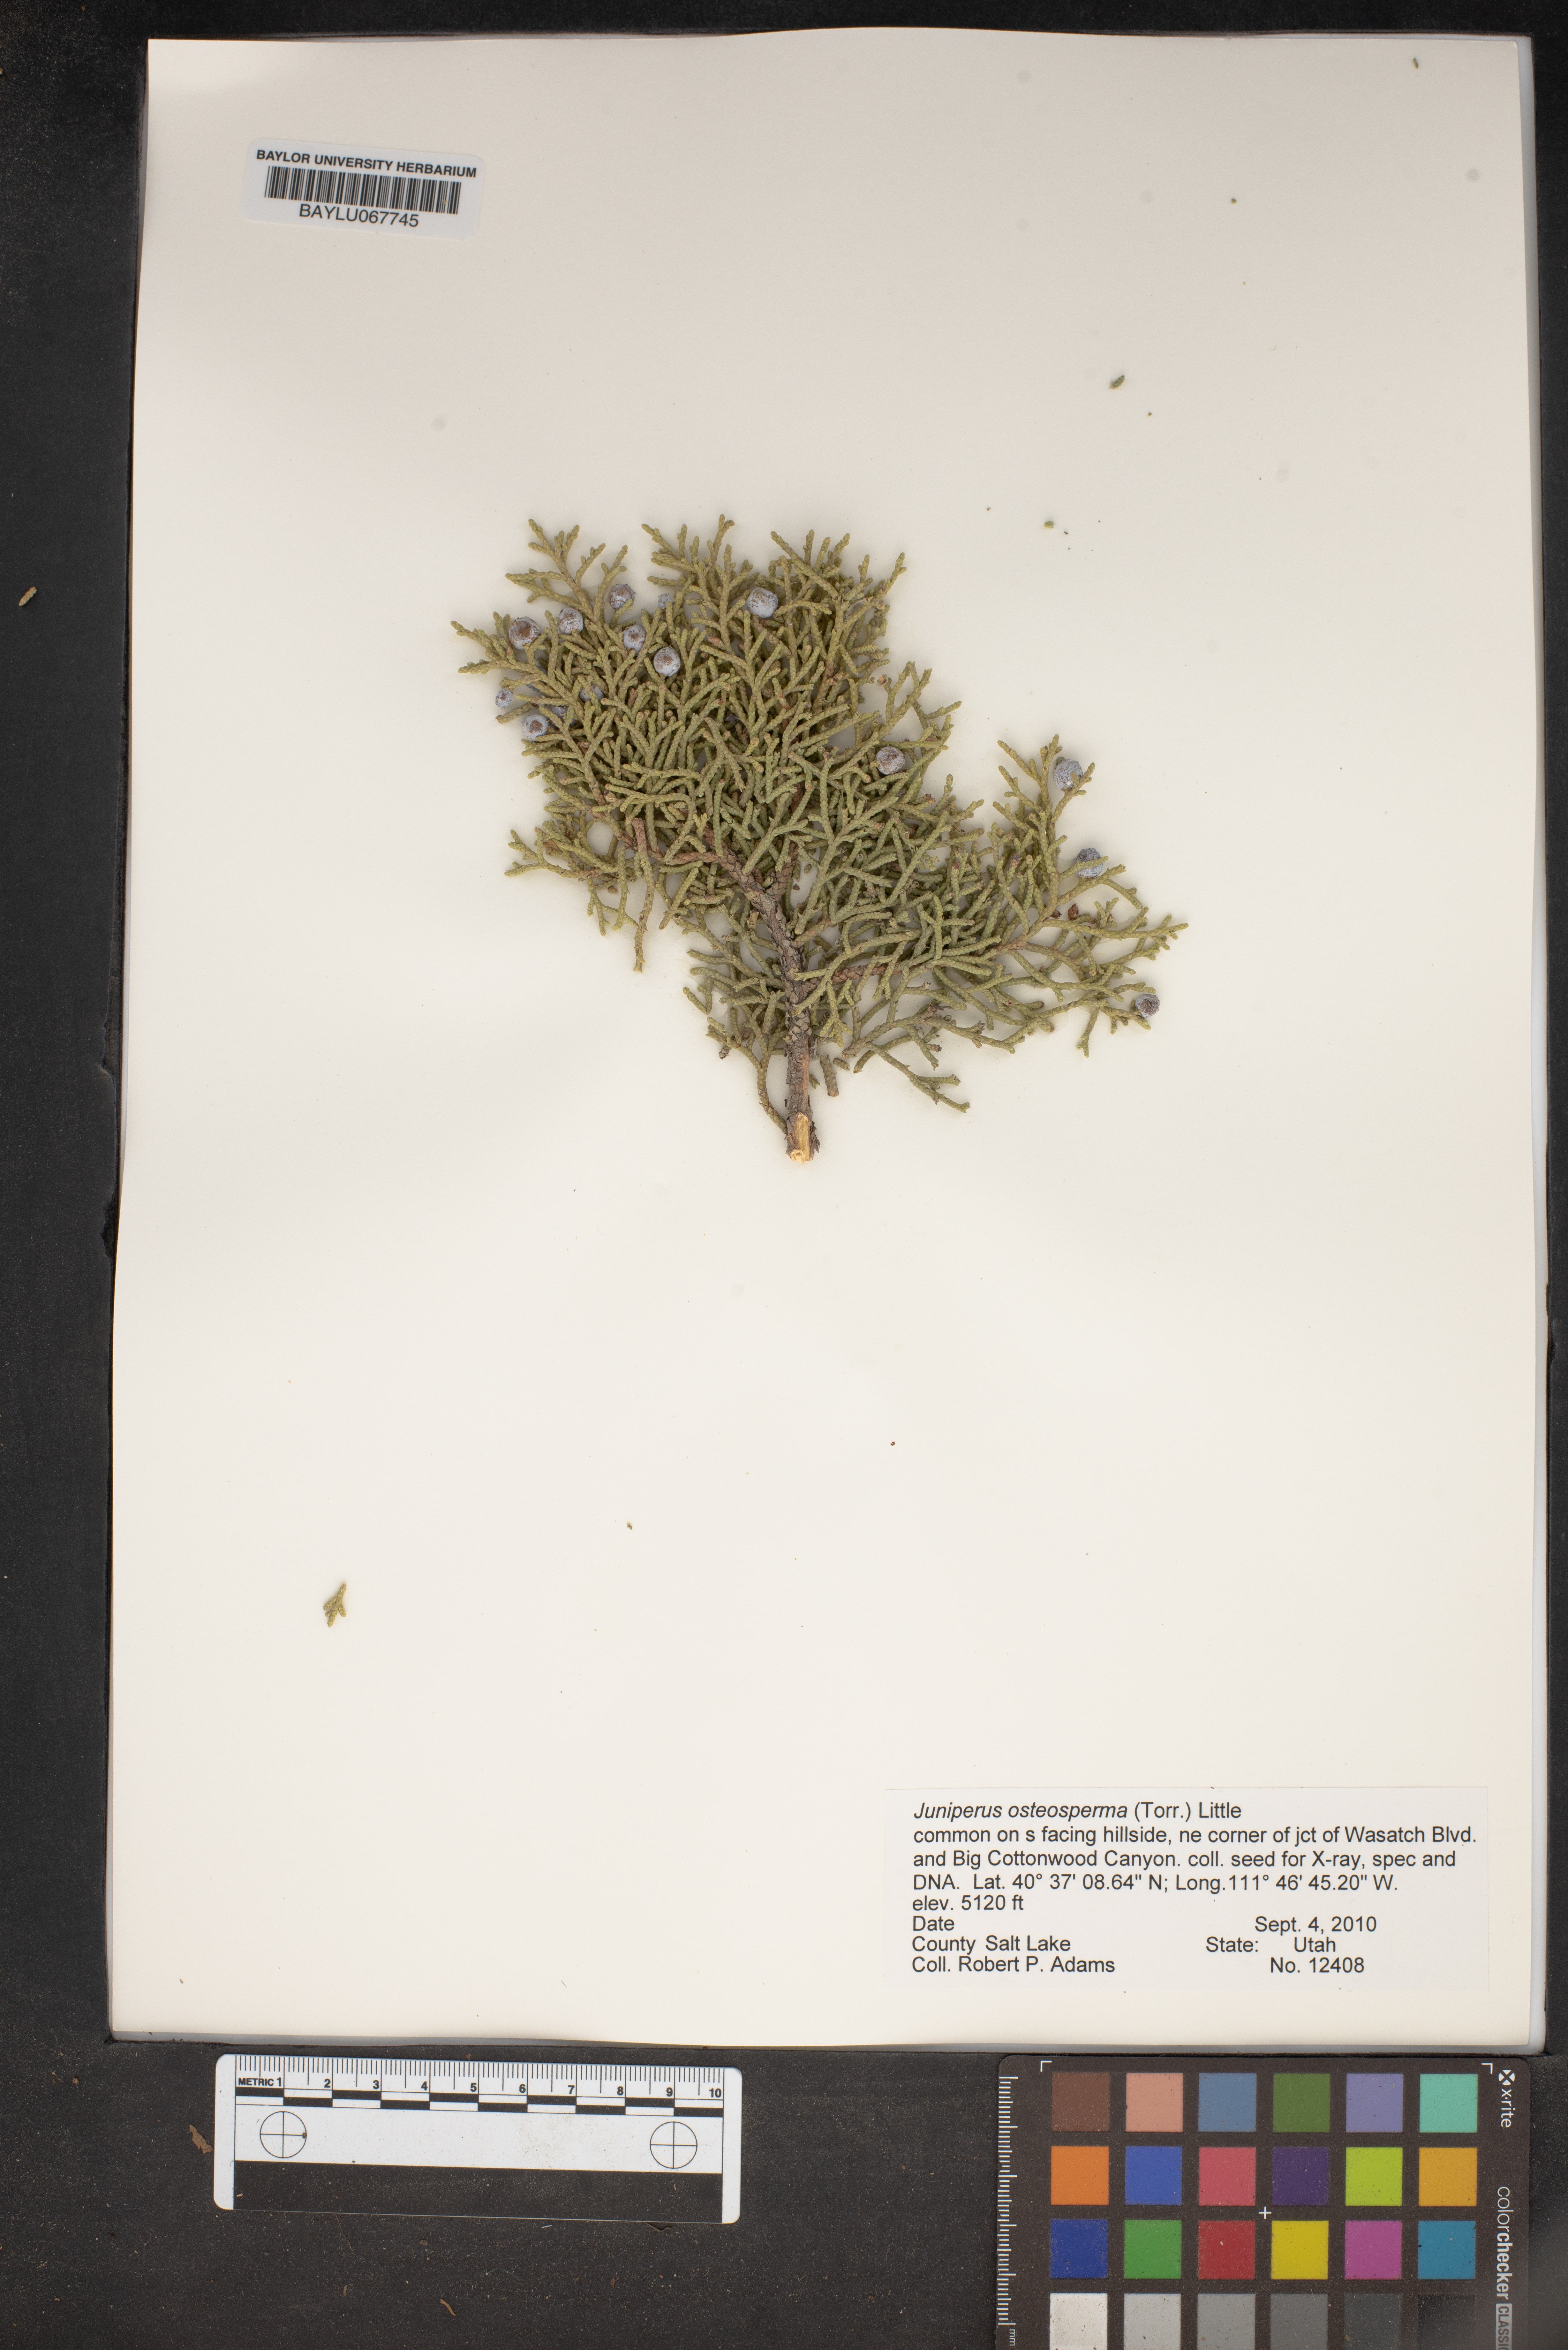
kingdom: Plantae
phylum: Tracheophyta
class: Pinopsida
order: Pinales
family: Cupressaceae
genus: Juniperus
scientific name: Juniperus osteosperma
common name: Utah juniper
